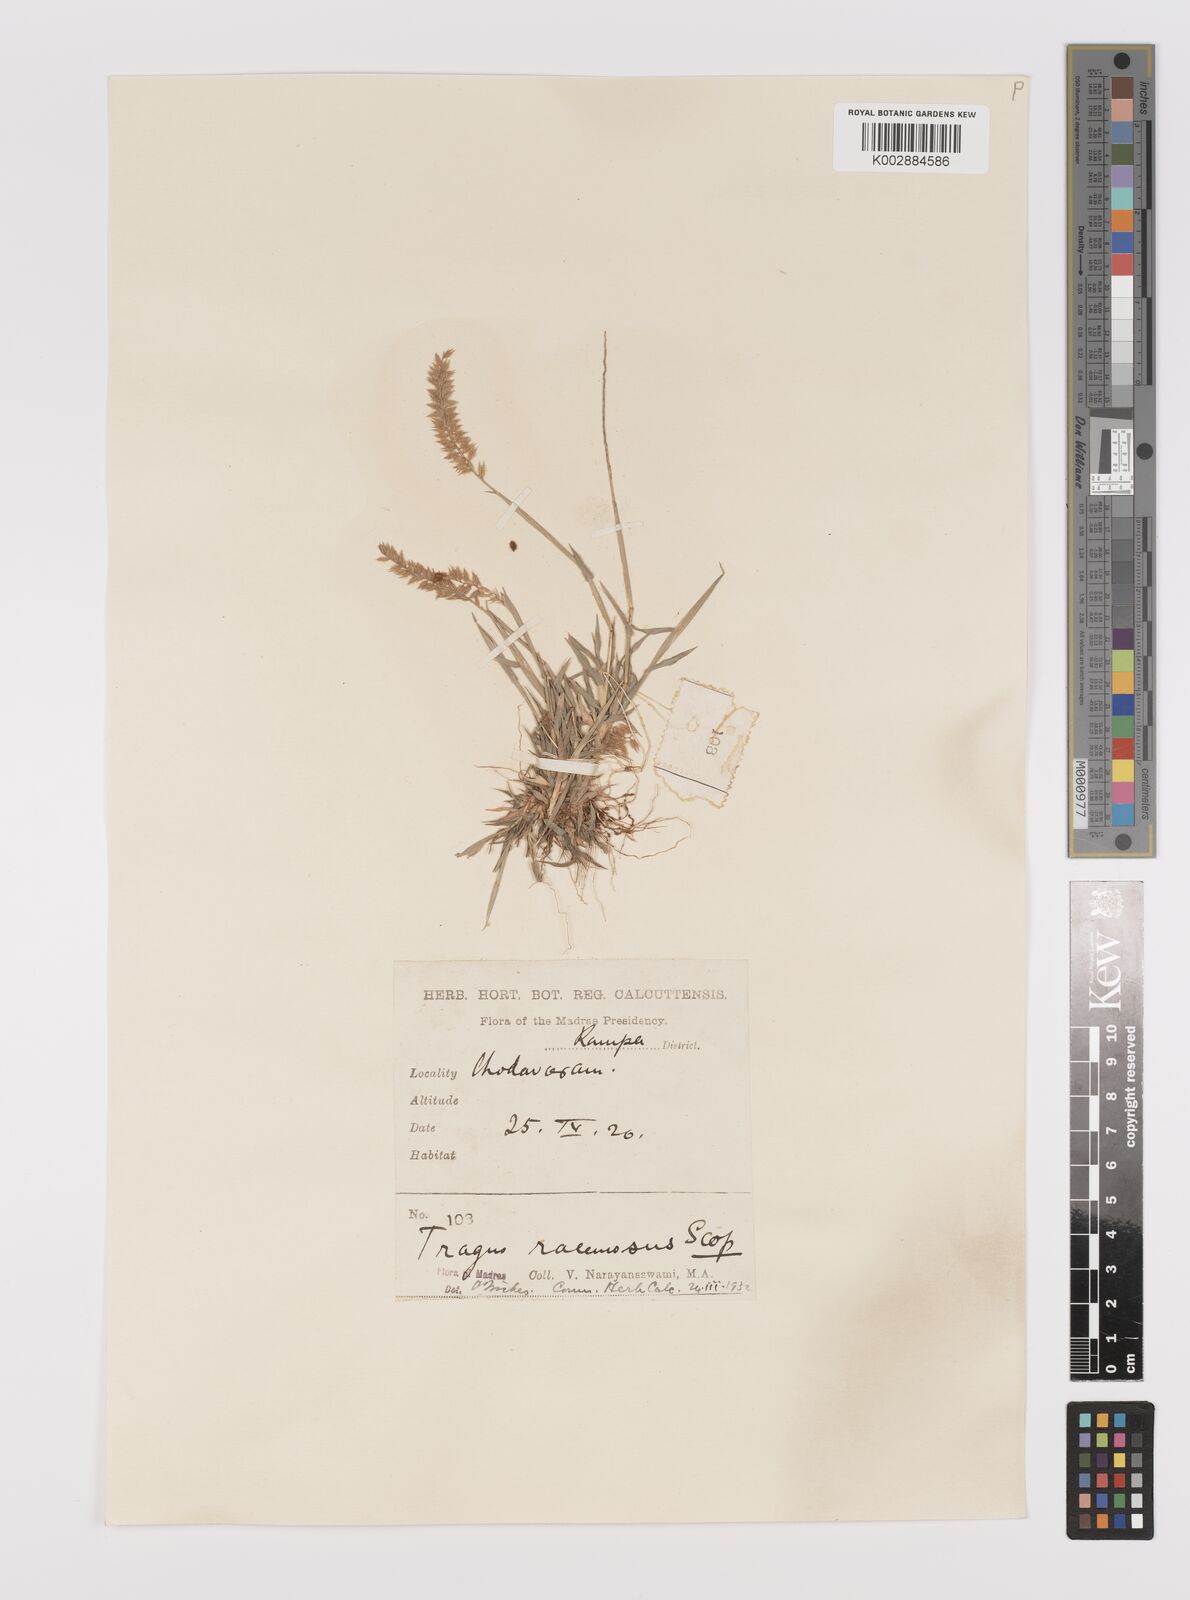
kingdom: Plantae
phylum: Tracheophyta
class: Liliopsida
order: Poales
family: Poaceae
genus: Tragus
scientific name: Tragus mongolorum
